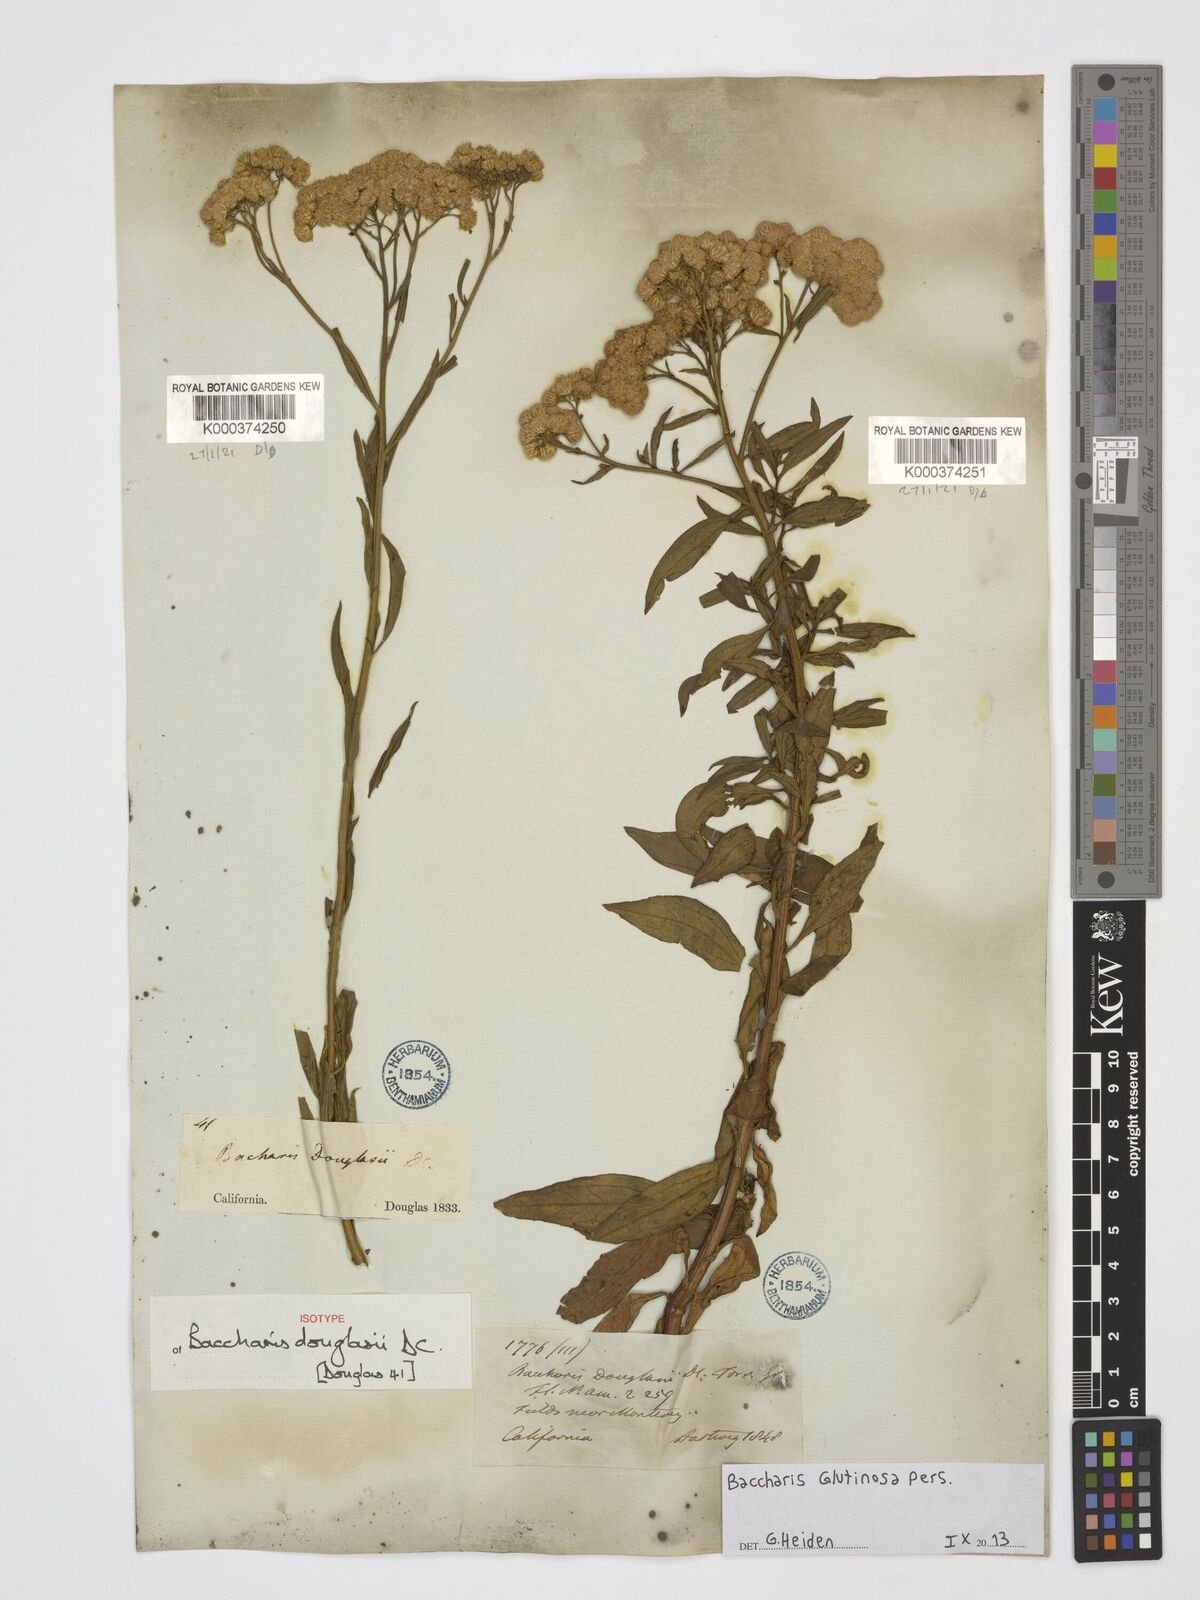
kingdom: Plantae
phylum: Tracheophyta
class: Magnoliopsida
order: Asterales
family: Asteraceae
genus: Baccharis
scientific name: Baccharis glutinosa
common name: Saltmarsh baccharis
